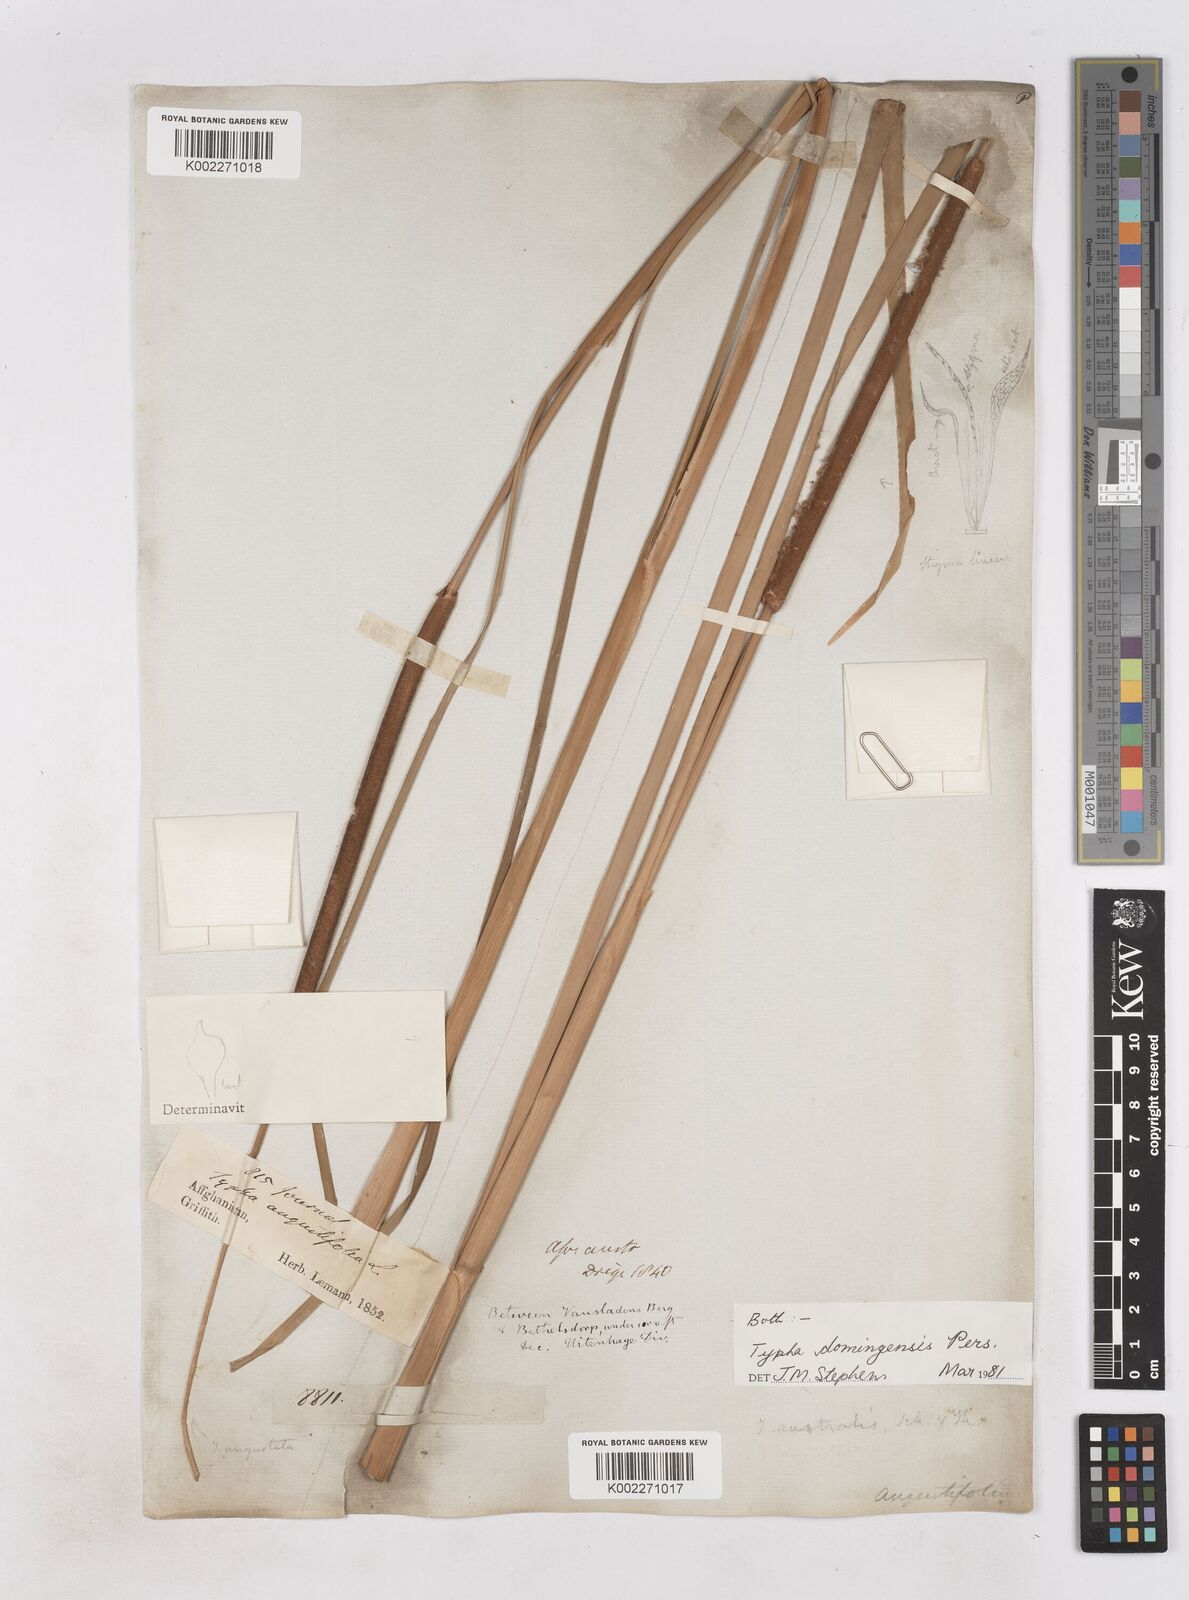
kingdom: Plantae
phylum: Tracheophyta
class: Liliopsida
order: Poales
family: Typhaceae
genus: Typha
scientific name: Typha domingensis
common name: Southern cattail
